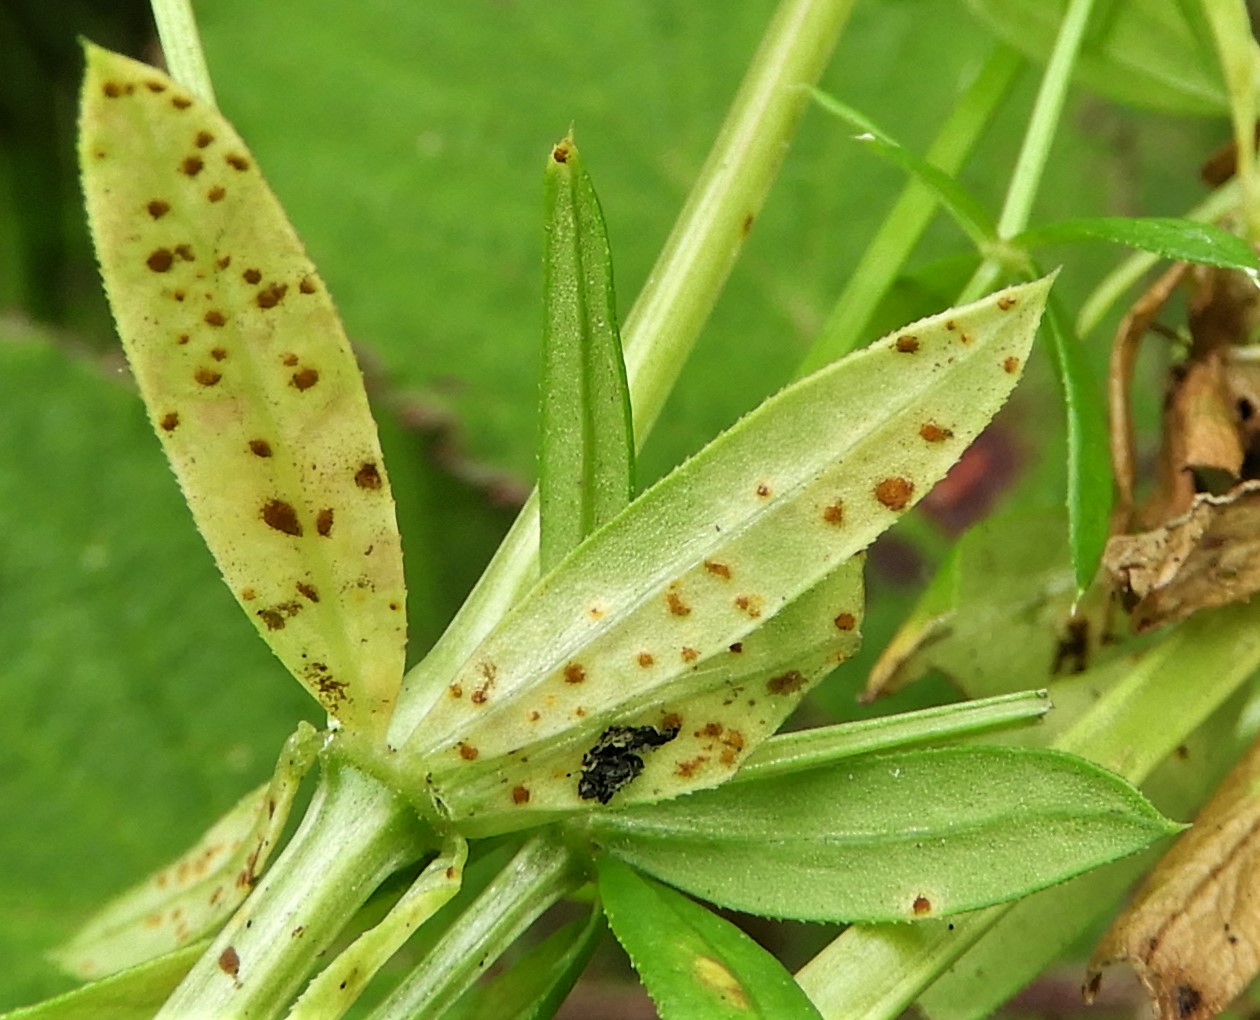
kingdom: Fungi
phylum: Basidiomycota
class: Pucciniomycetes
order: Pucciniales
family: Pucciniaceae
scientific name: Pucciniaceae
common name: rustsvampfamilien
